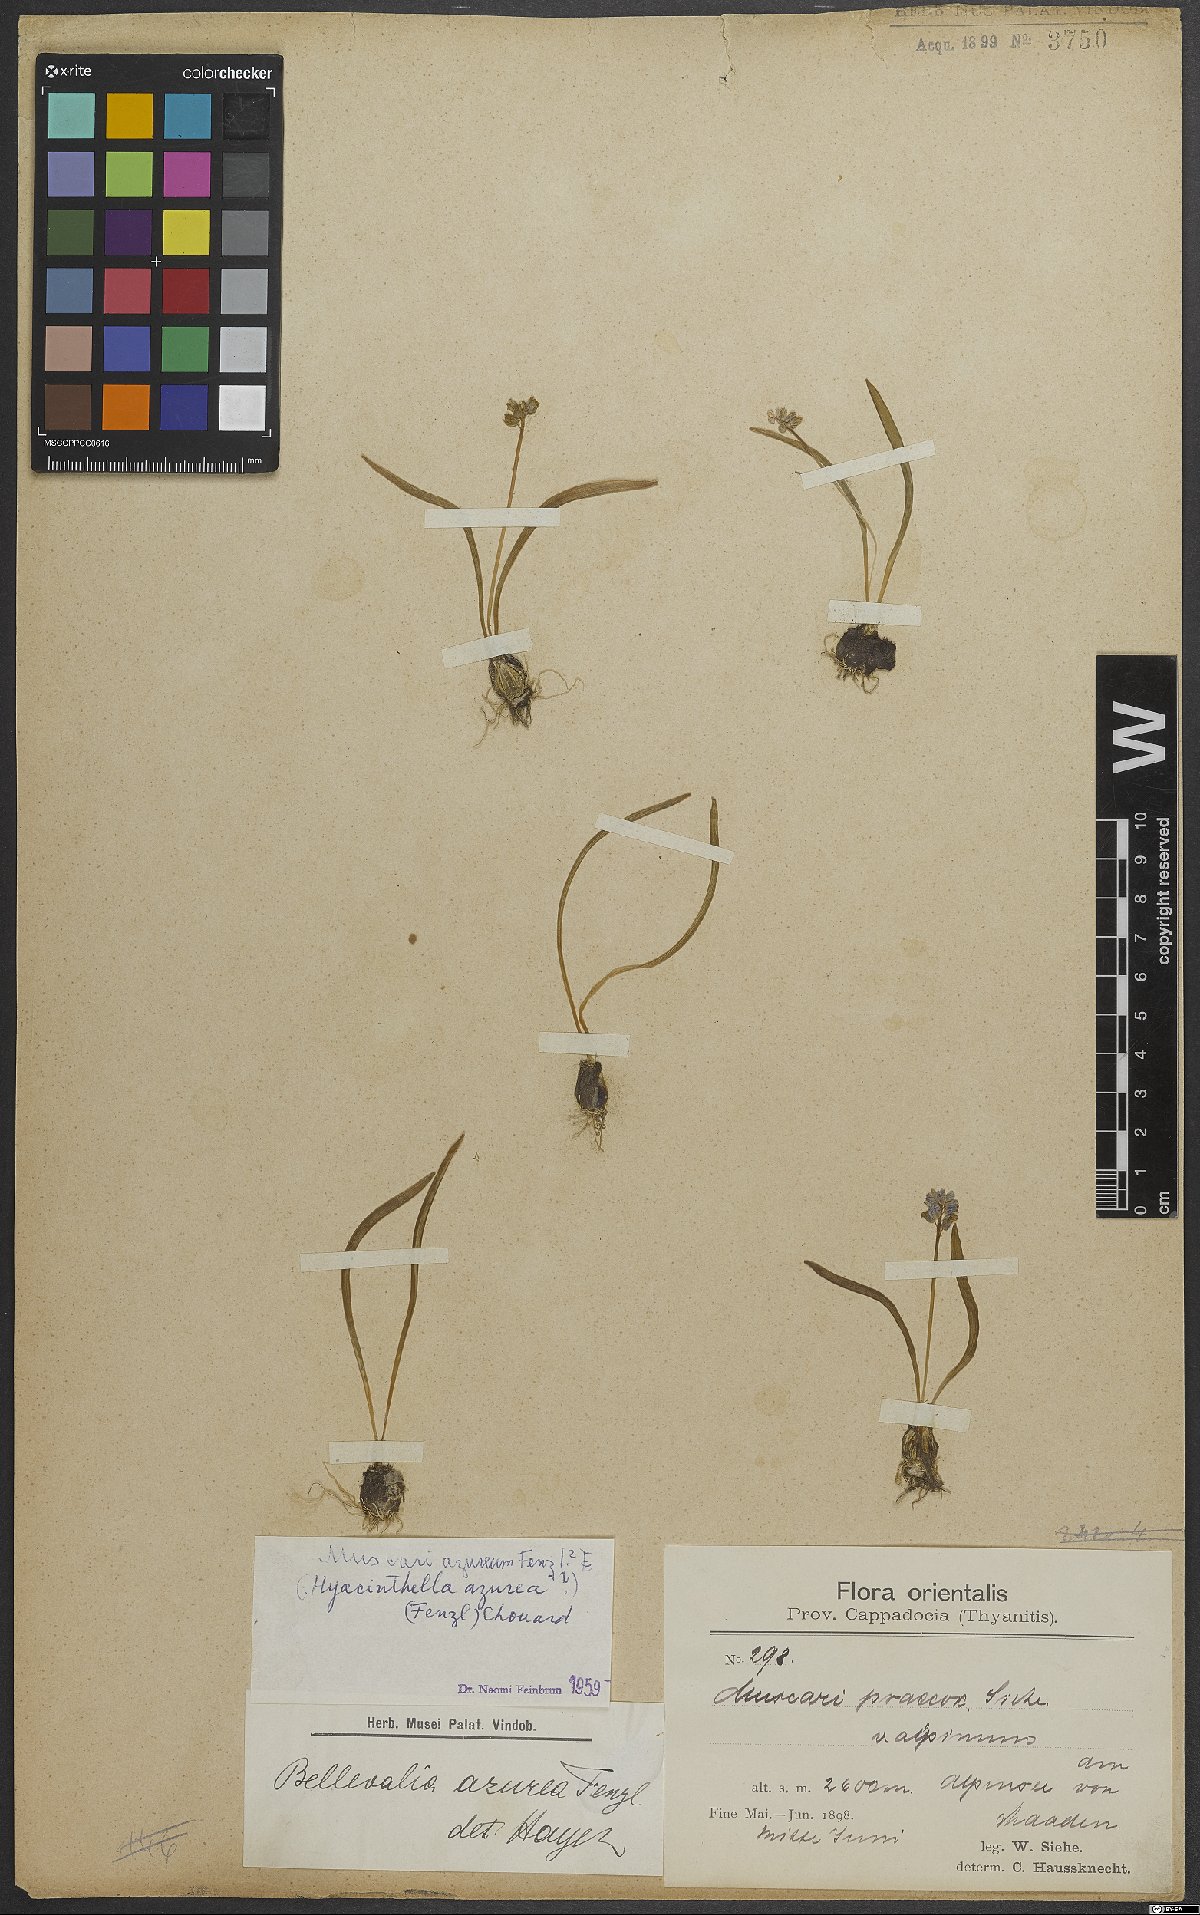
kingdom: Plantae
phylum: Tracheophyta
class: Liliopsida
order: Asparagales
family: Asparagaceae
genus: Muscari
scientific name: Muscari azureum
